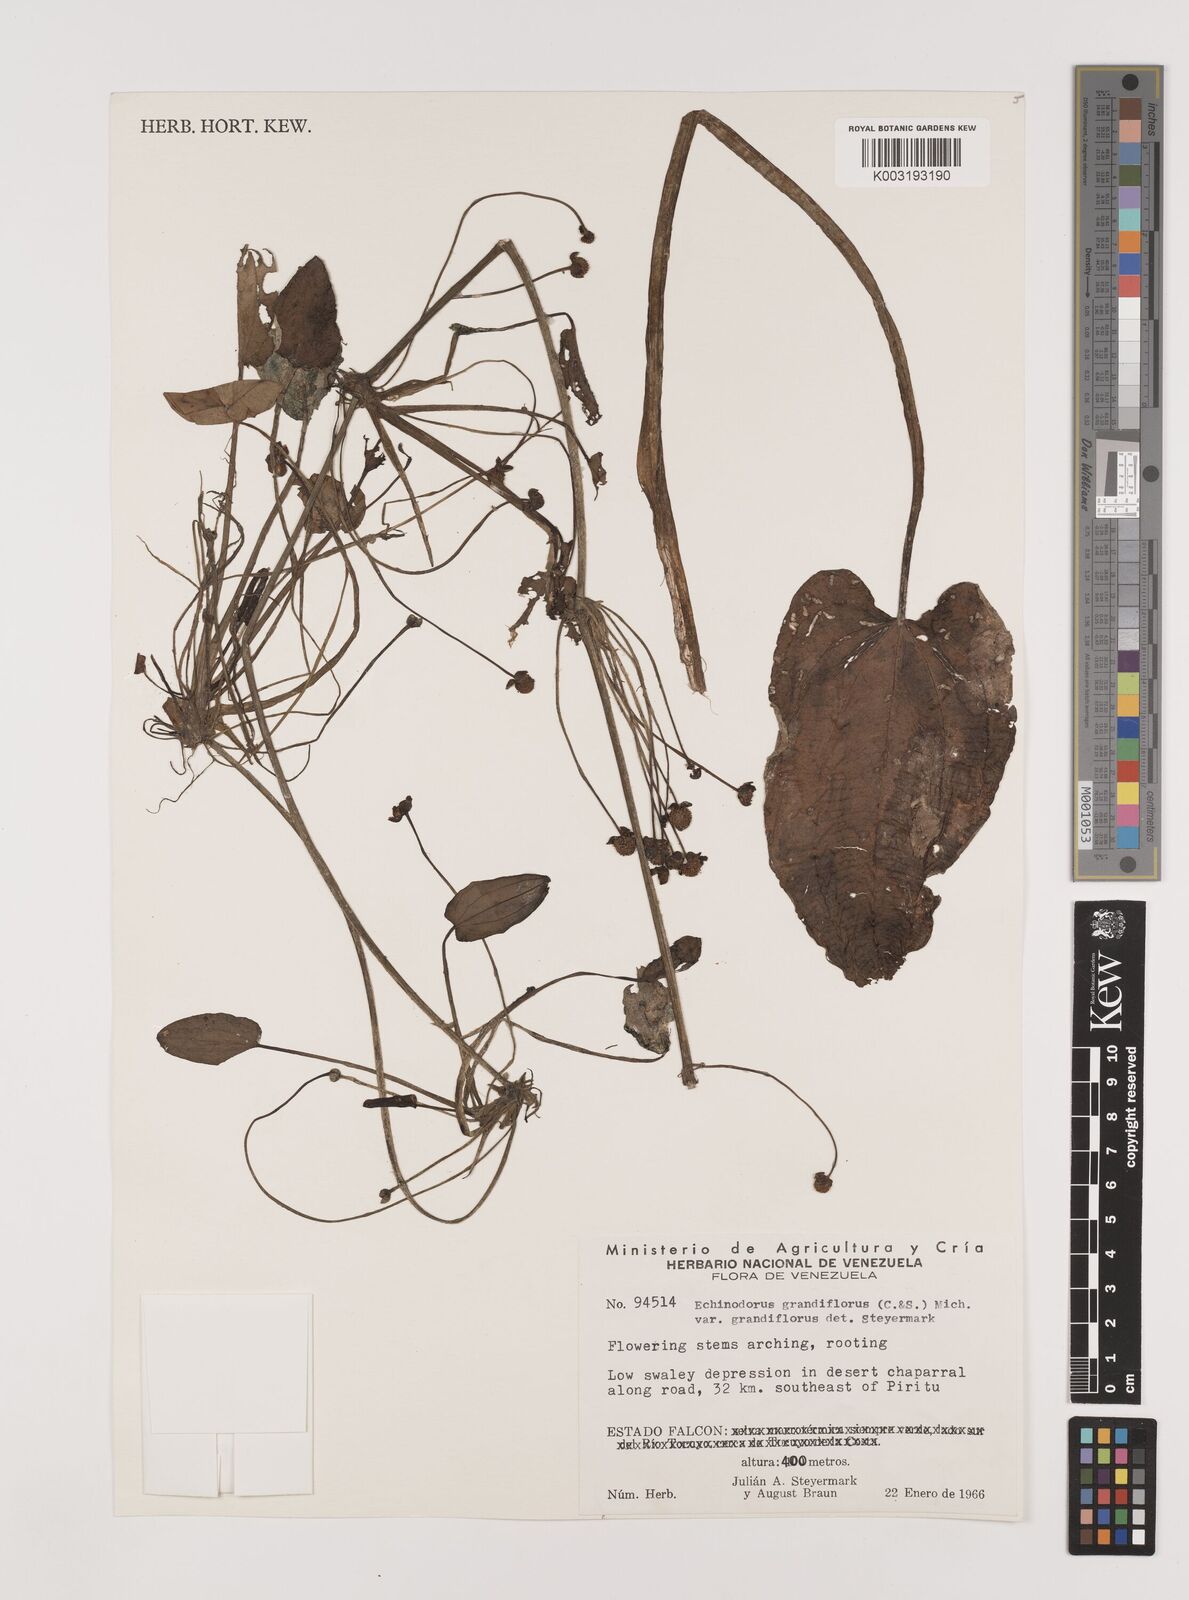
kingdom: Plantae
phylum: Tracheophyta
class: Liliopsida
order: Alismatales
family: Alismataceae
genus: Aquarius
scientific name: Aquarius grandiflorus
